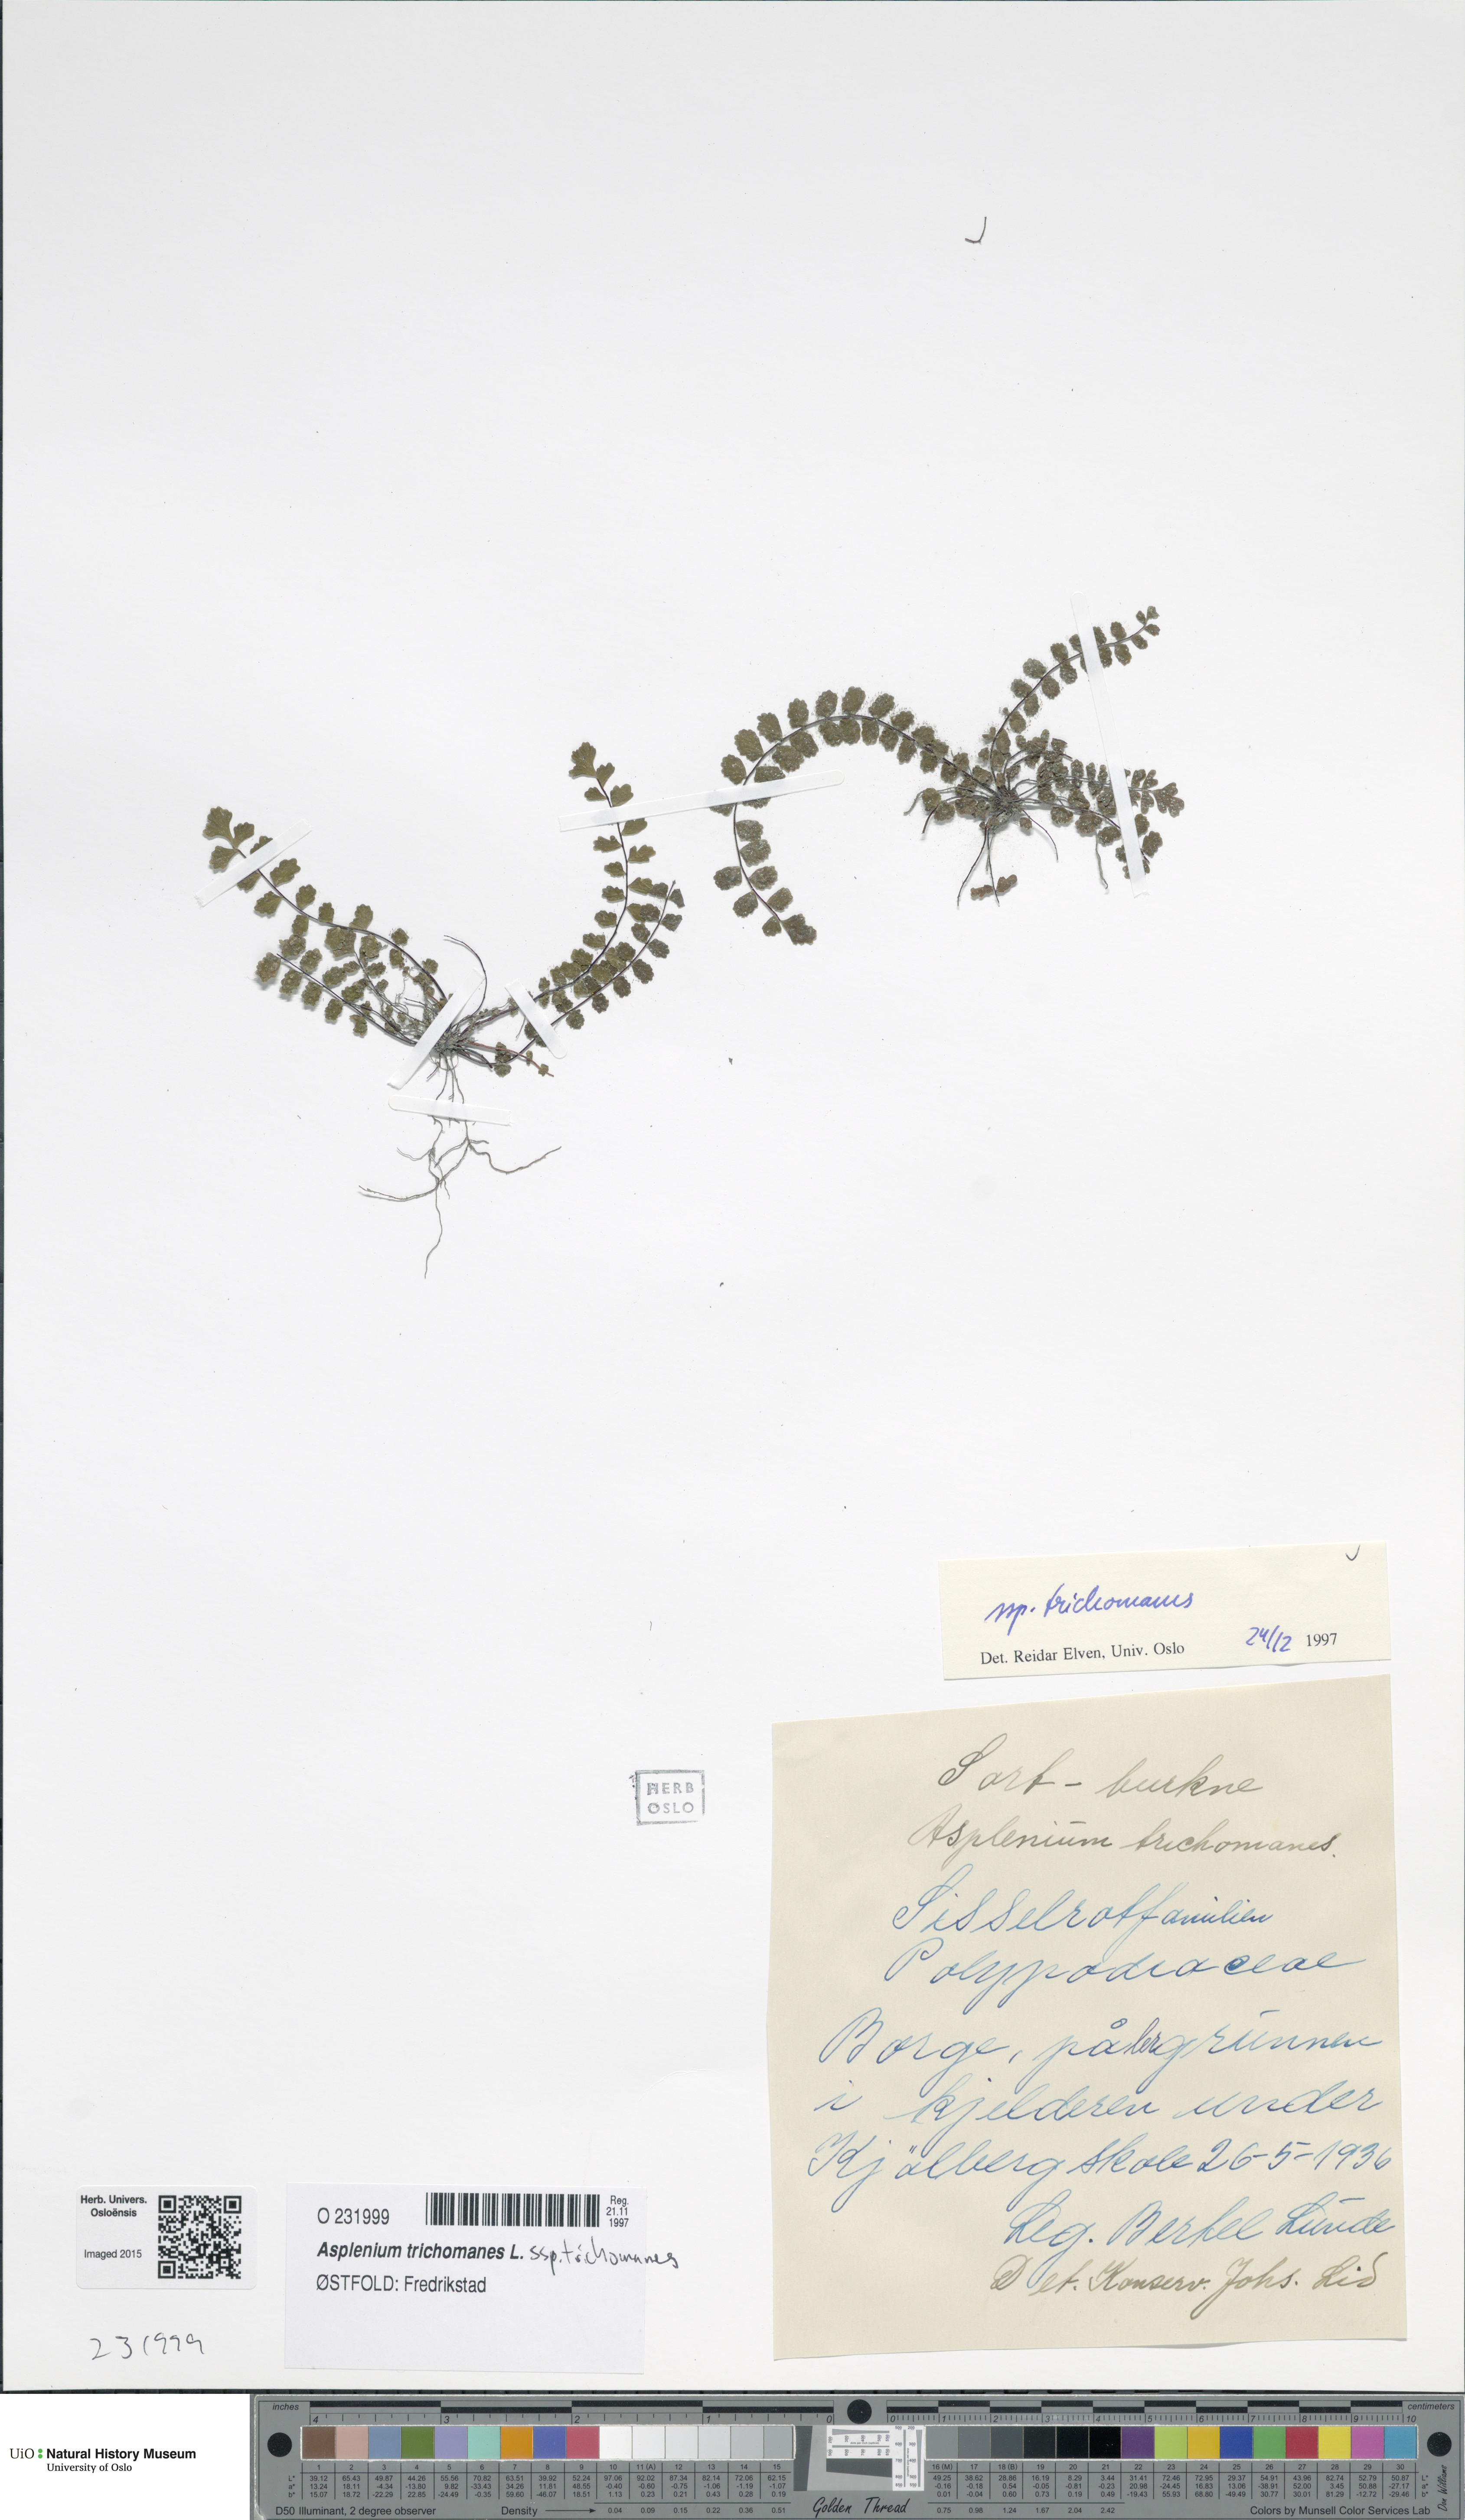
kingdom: Plantae
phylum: Tracheophyta
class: Polypodiopsida
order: Polypodiales
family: Aspleniaceae
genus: Asplenium
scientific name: Asplenium trichomanes
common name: Maidenhair spleenwort
